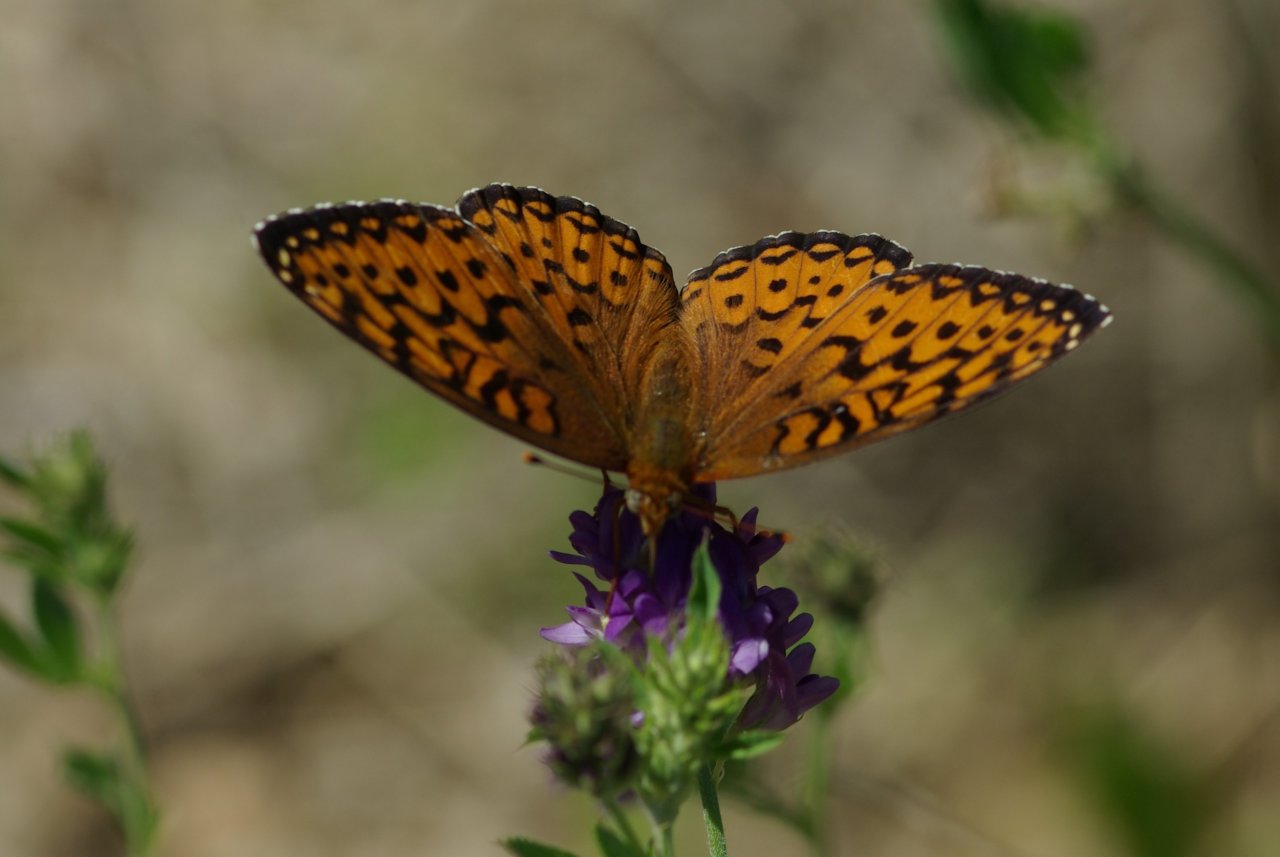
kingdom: Animalia
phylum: Arthropoda
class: Insecta
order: Lepidoptera
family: Nymphalidae
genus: Speyeria
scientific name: Speyeria atlantis
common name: Atlantis Fritillary
